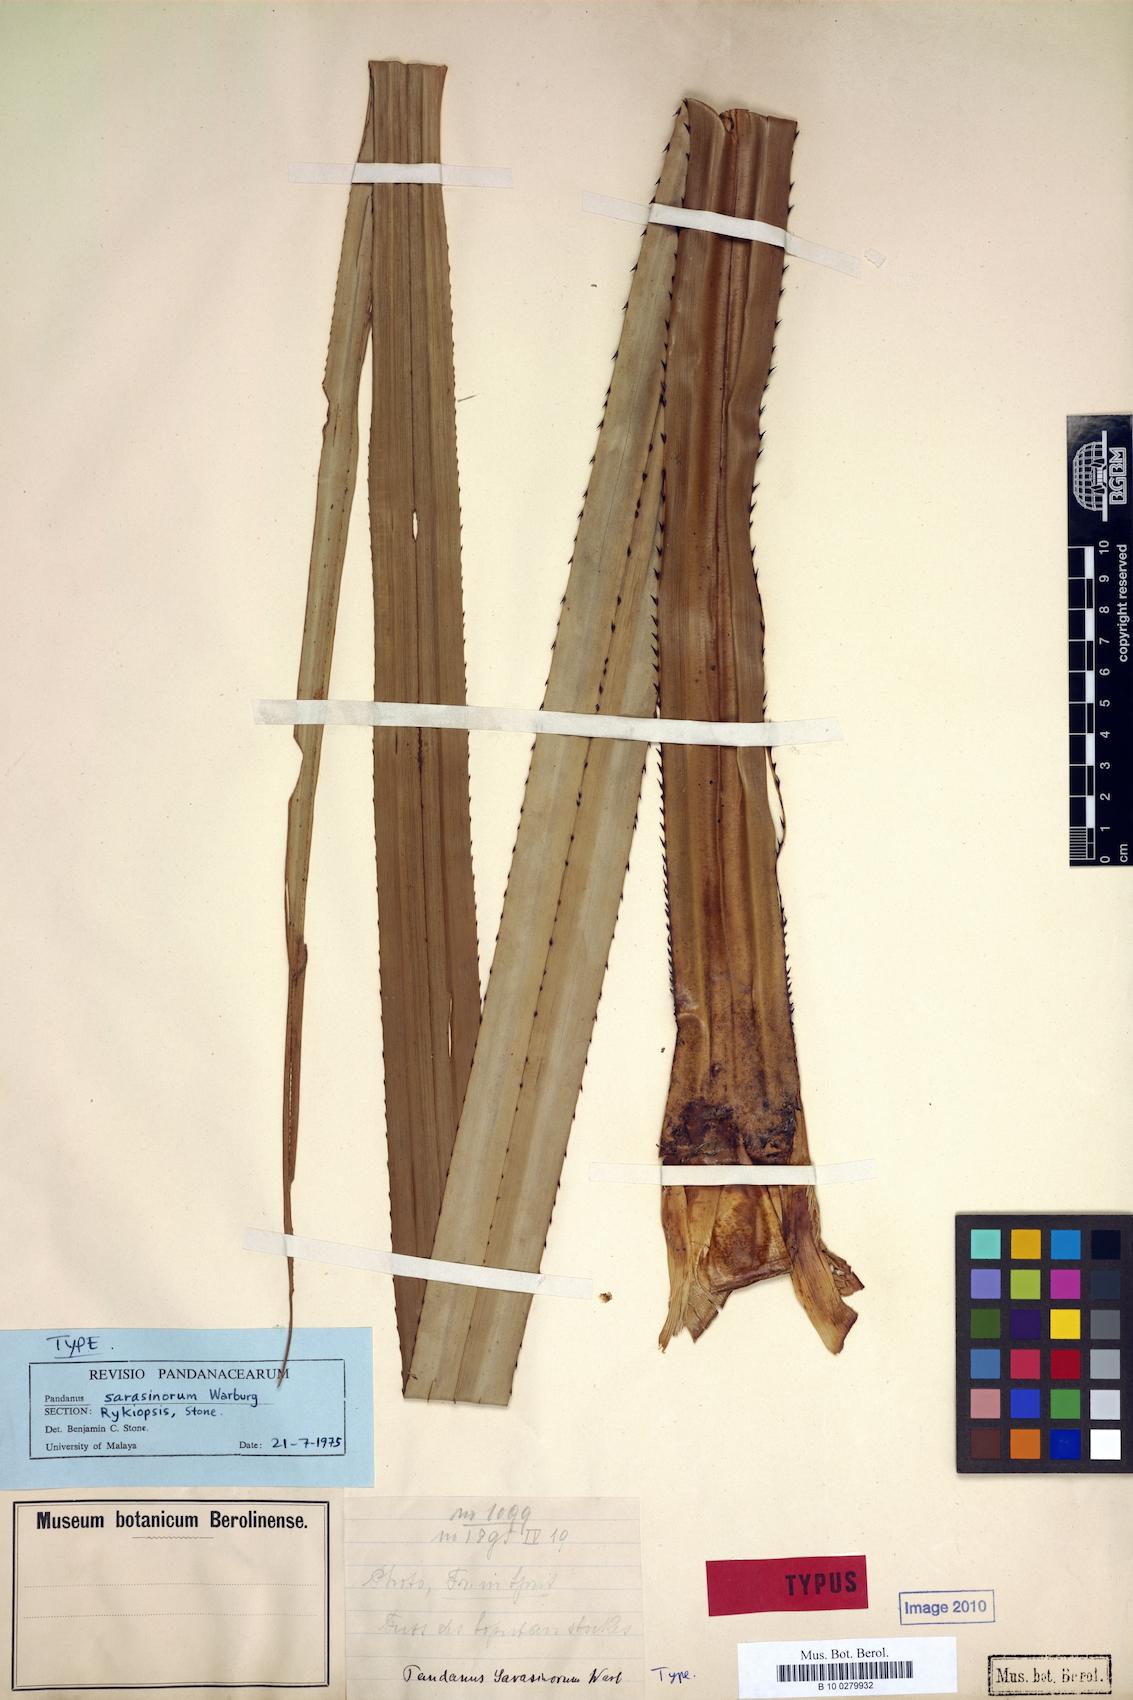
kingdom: Plantae
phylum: Tracheophyta
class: Liliopsida
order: Pandanales
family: Pandanaceae
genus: Pandanus
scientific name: Pandanus sarasinorum
